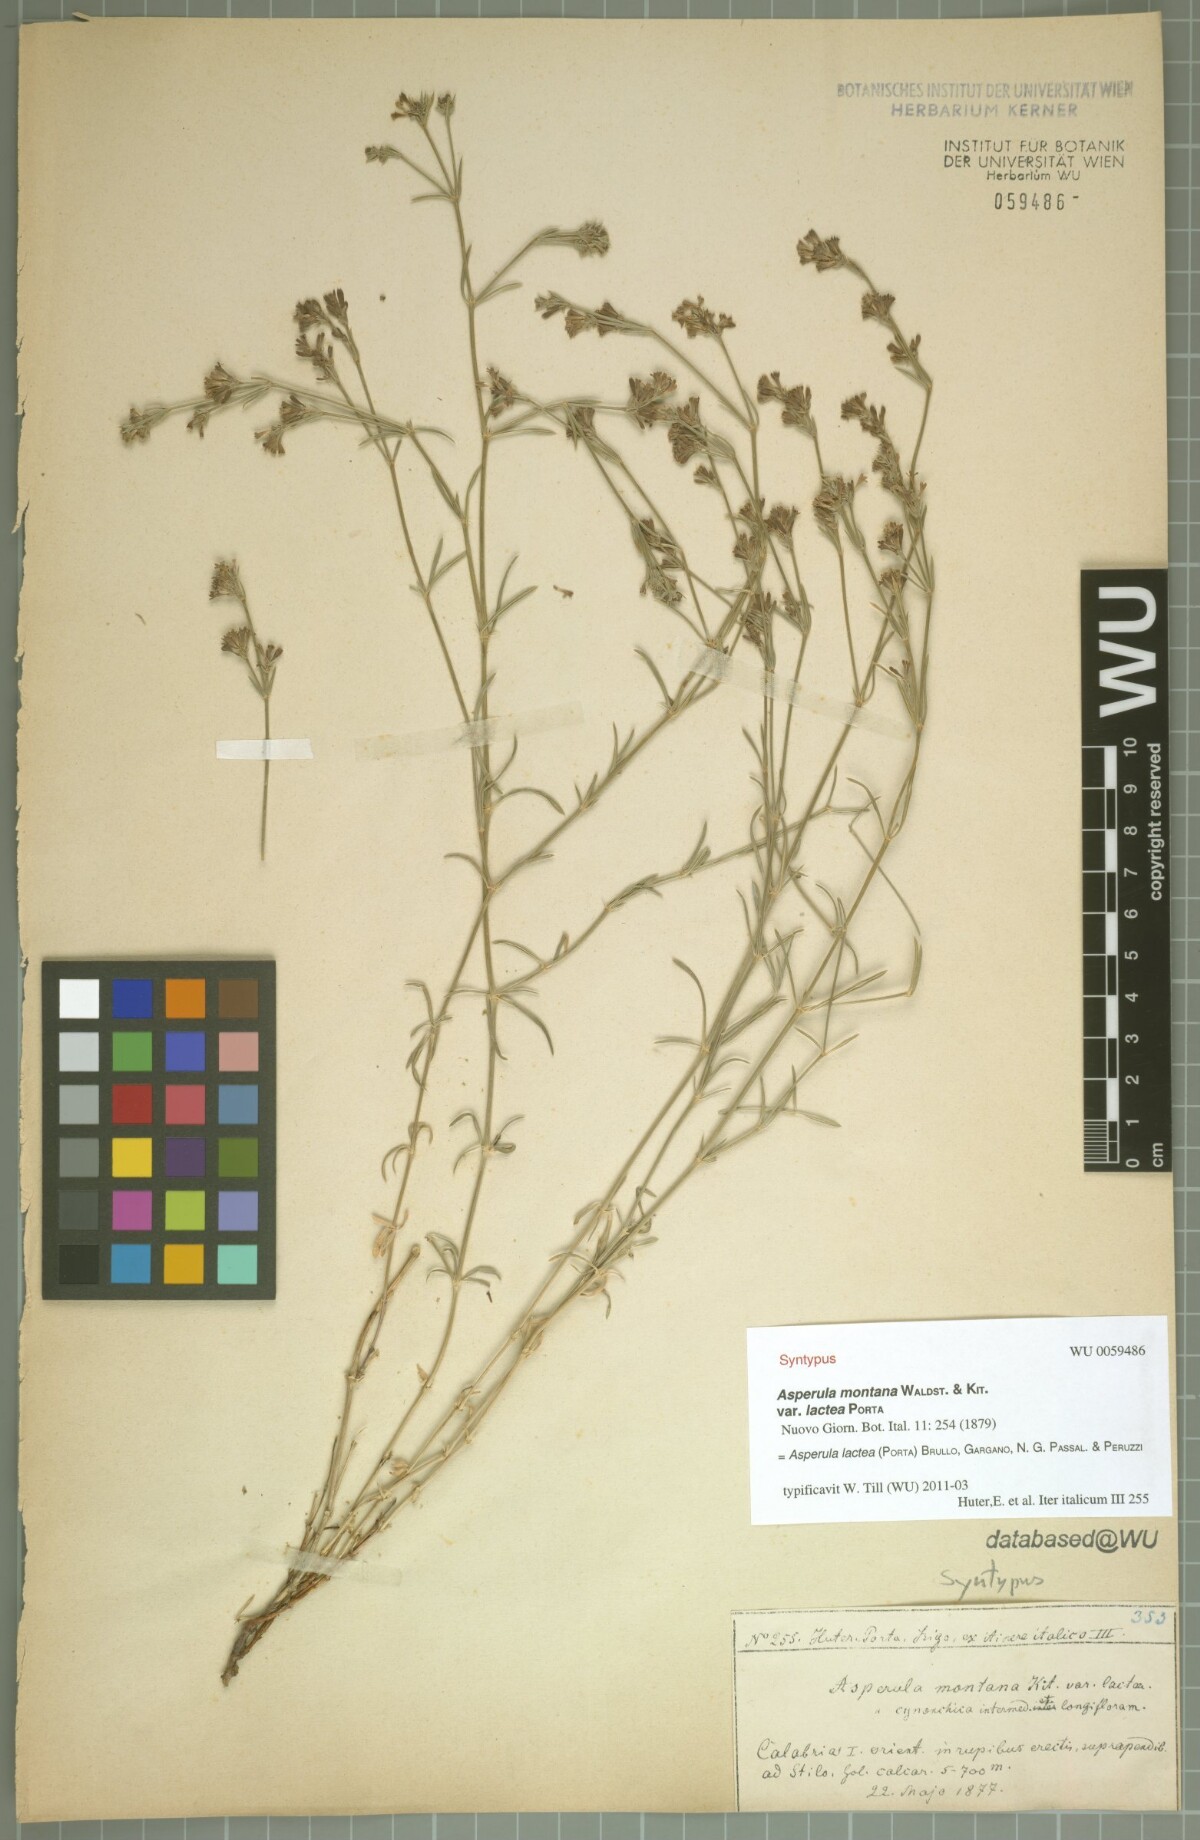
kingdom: Plantae
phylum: Tracheophyta
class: Magnoliopsida
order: Gentianales
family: Rubiaceae
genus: Cynanchica
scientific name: Cynanchica lactea
